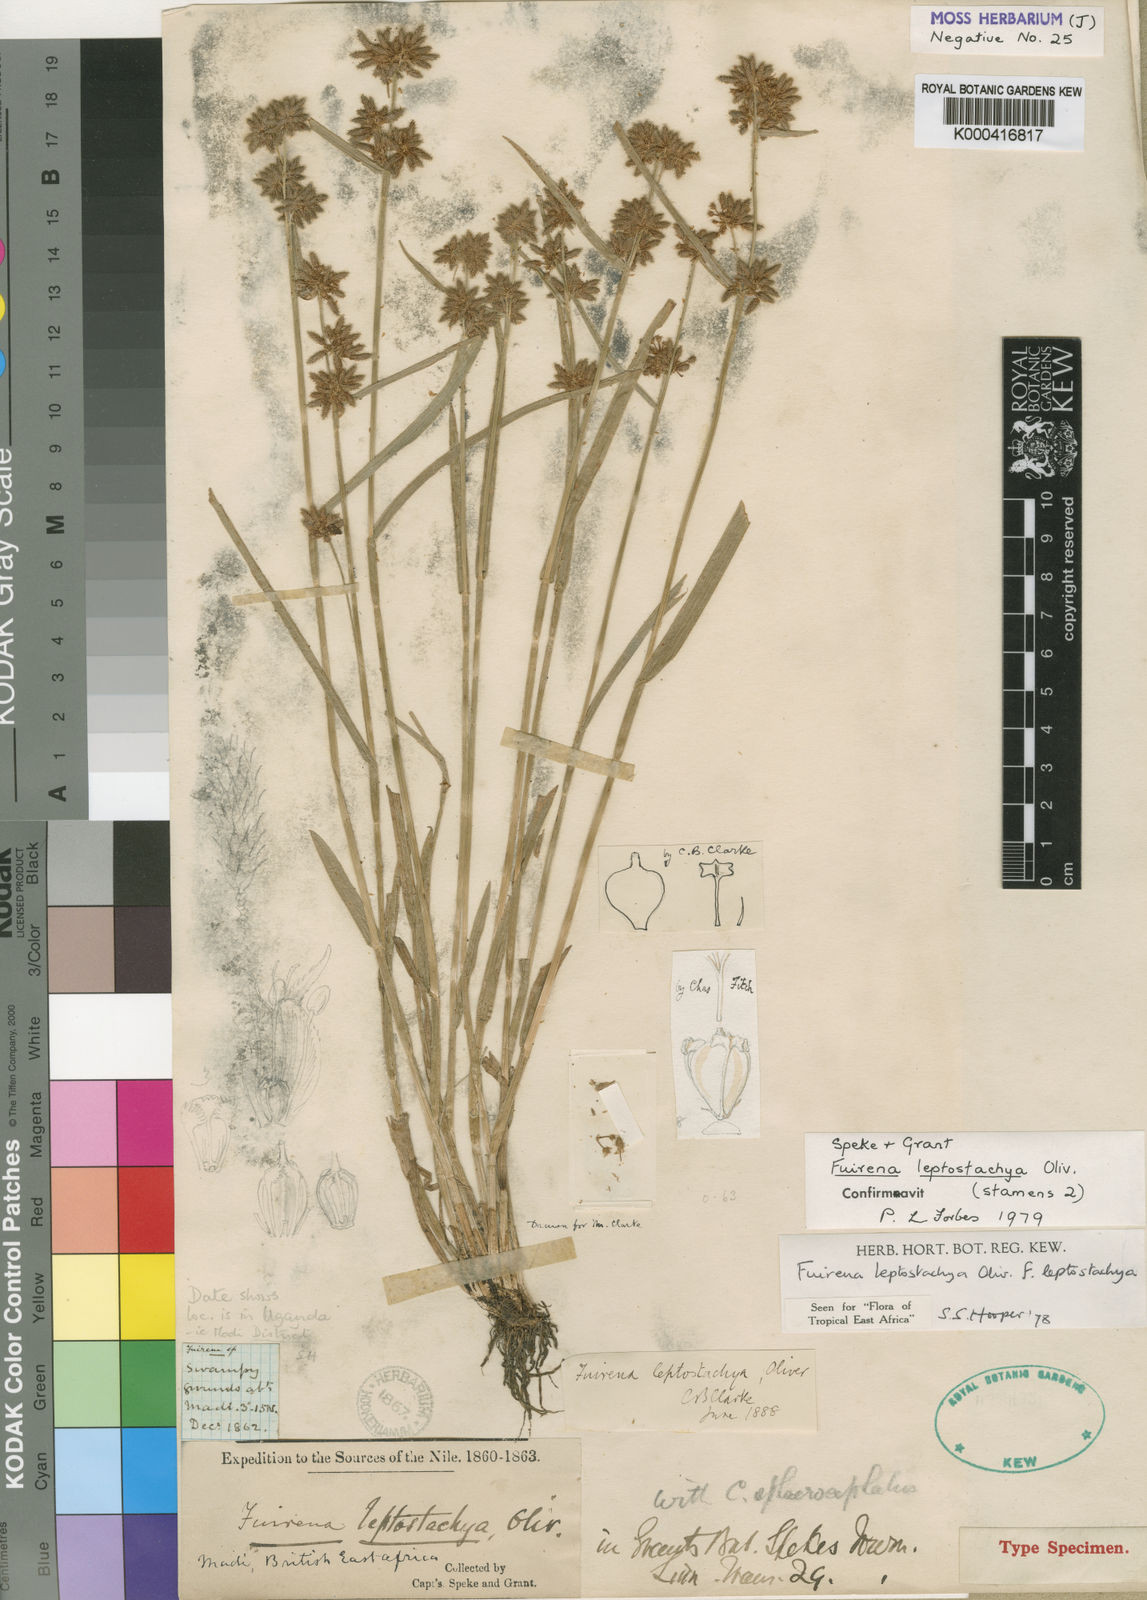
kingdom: Plantae
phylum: Tracheophyta
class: Liliopsida
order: Poales
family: Cyperaceae
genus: Fuirena
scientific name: Fuirena leptostachya
